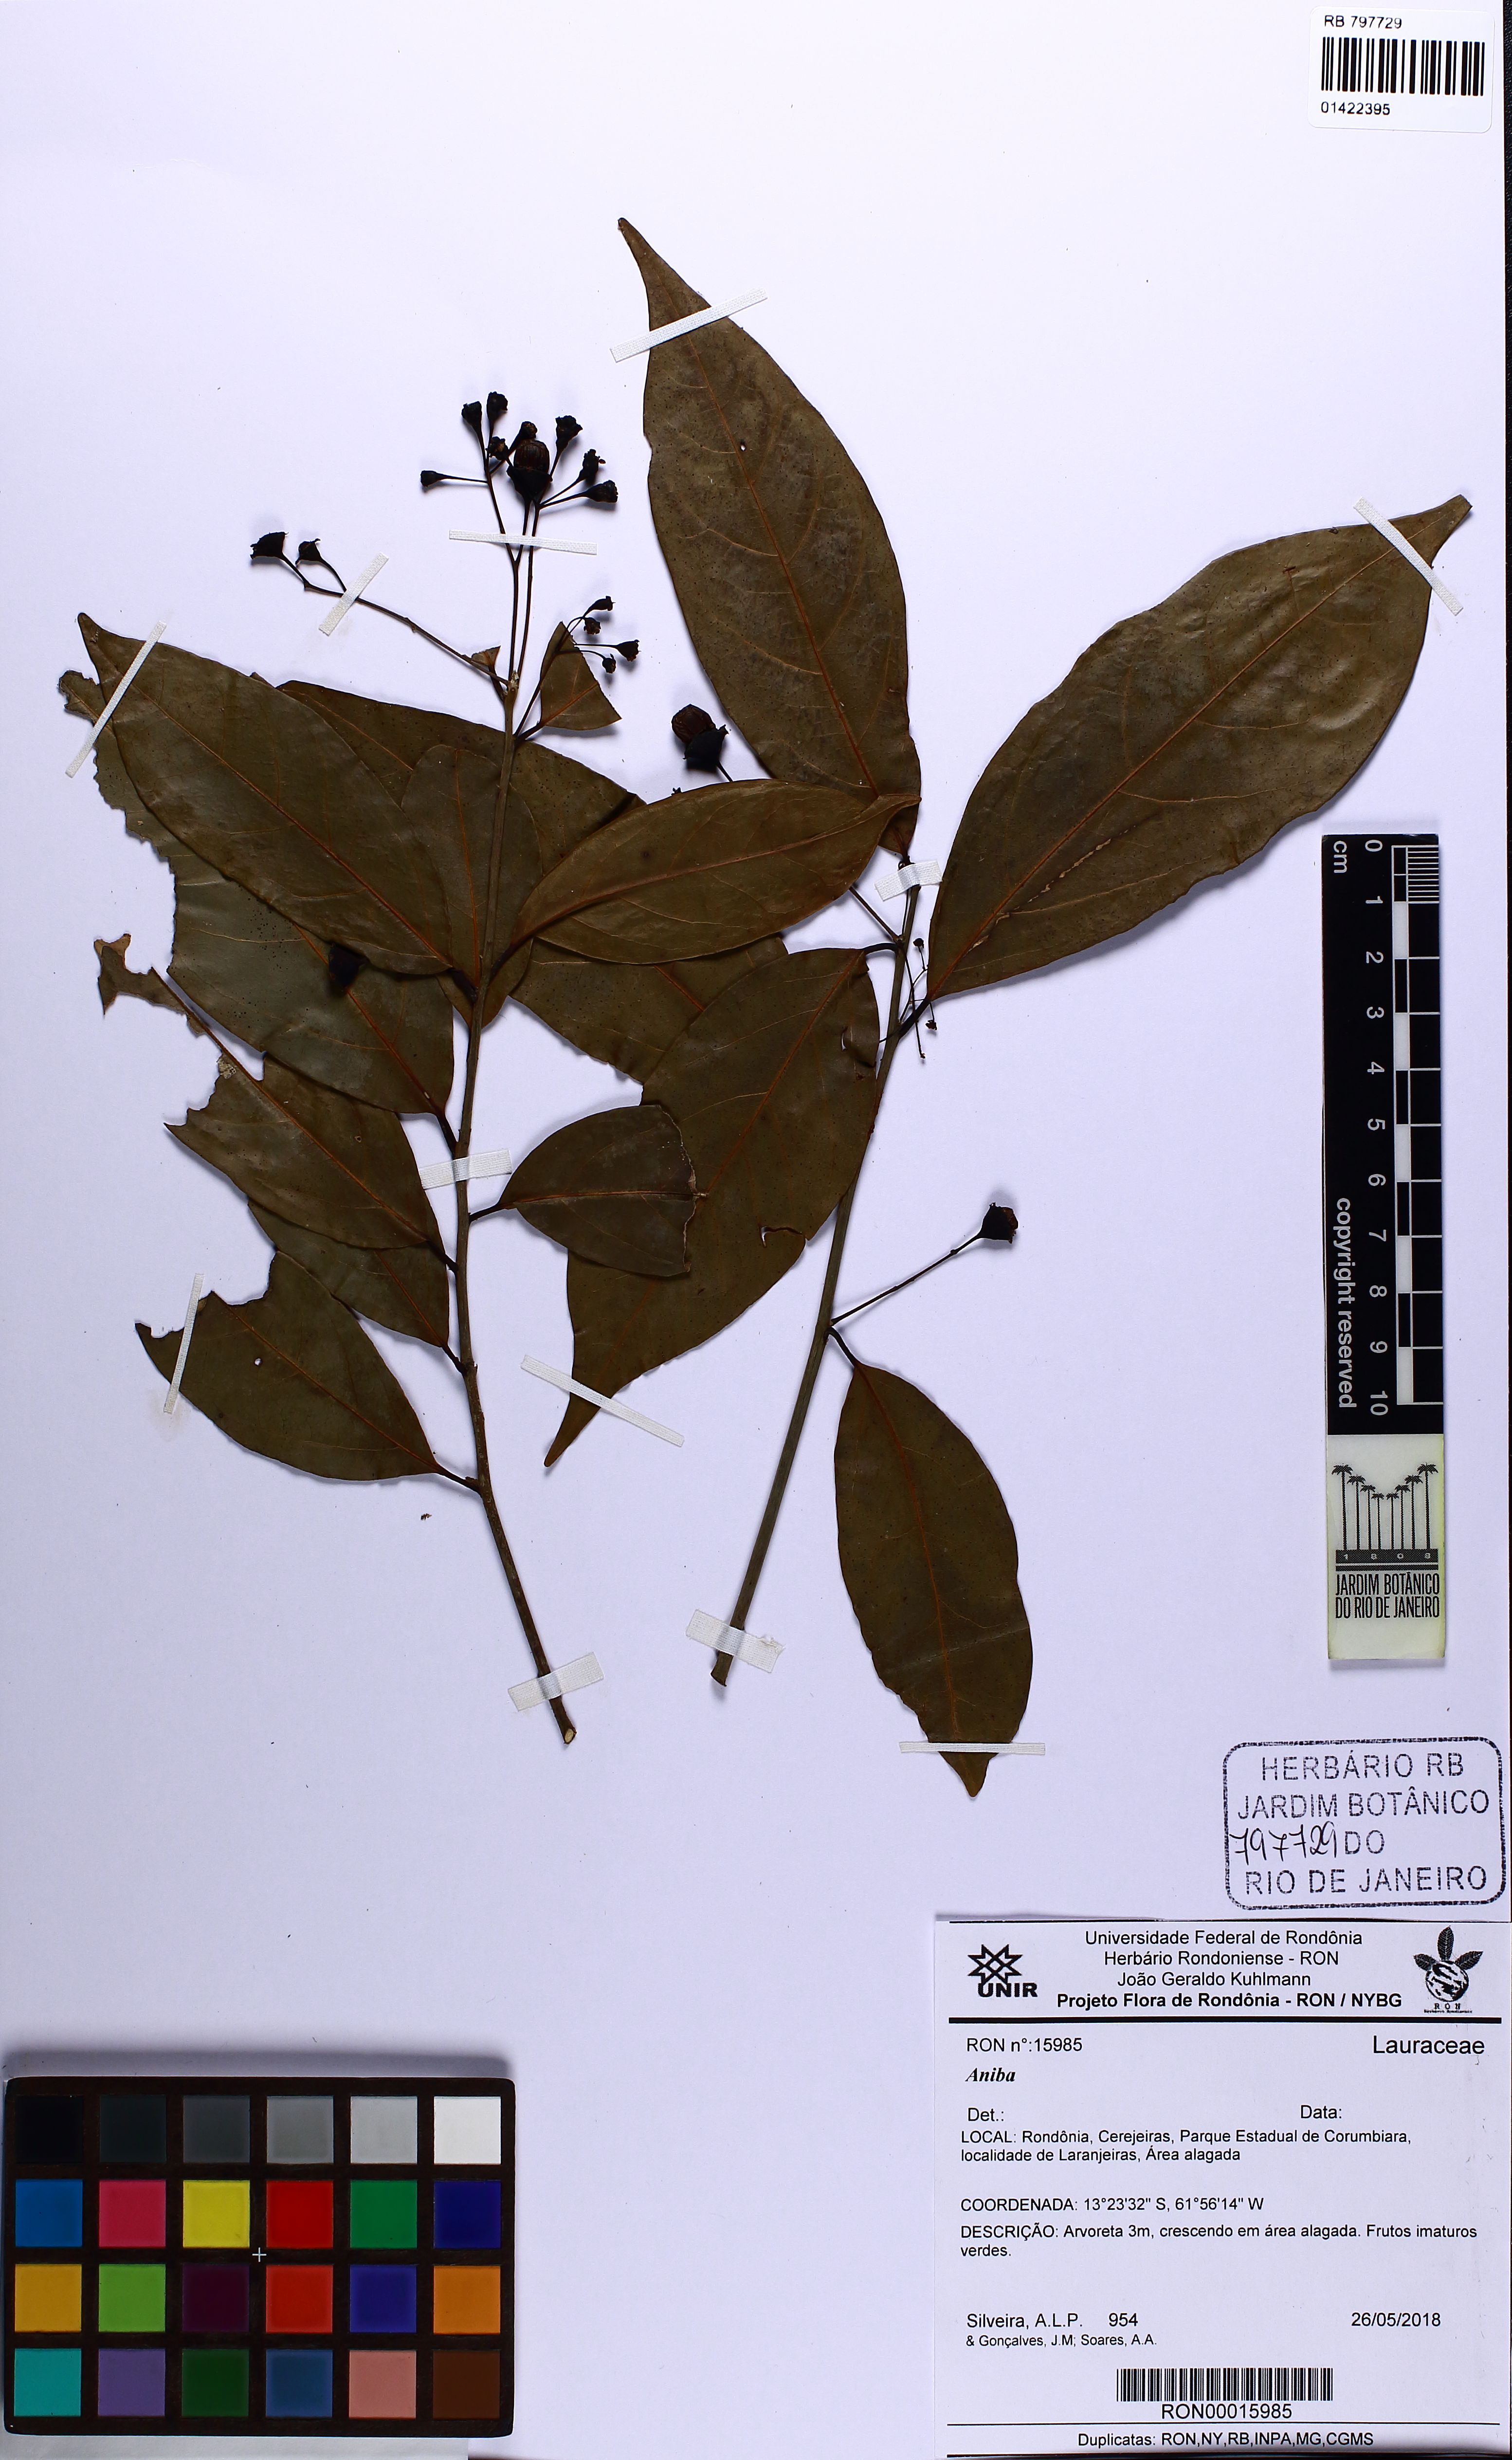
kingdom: Plantae
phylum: Tracheophyta
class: Magnoliopsida
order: Laurales
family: Lauraceae
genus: Aniba
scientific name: Aniba
